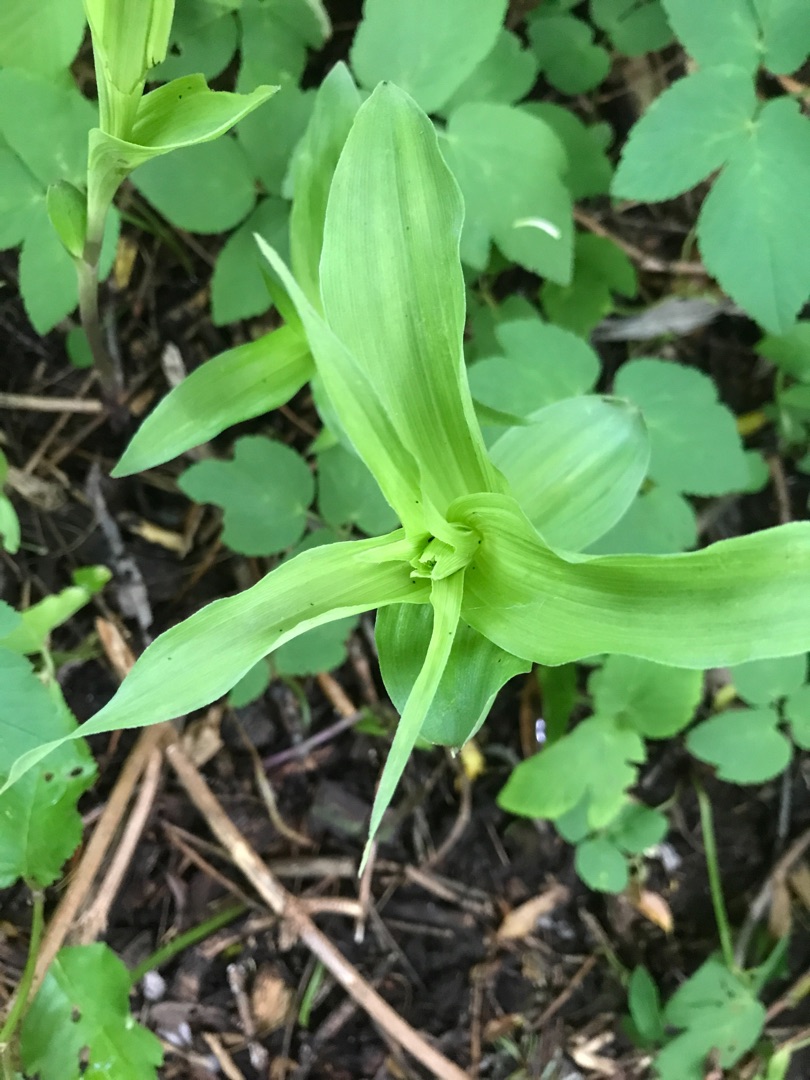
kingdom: Plantae
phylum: Tracheophyta
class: Liliopsida
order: Asparagales
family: Orchidaceae
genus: Epipactis
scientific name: Epipactis helleborine
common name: Skov-hullæbe
